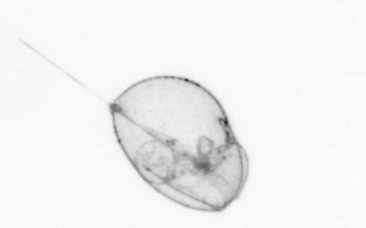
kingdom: Chromista
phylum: Myzozoa
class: Dinophyceae
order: Noctilucales
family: Noctilucaceae
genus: Noctiluca
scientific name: Noctiluca scintillans
